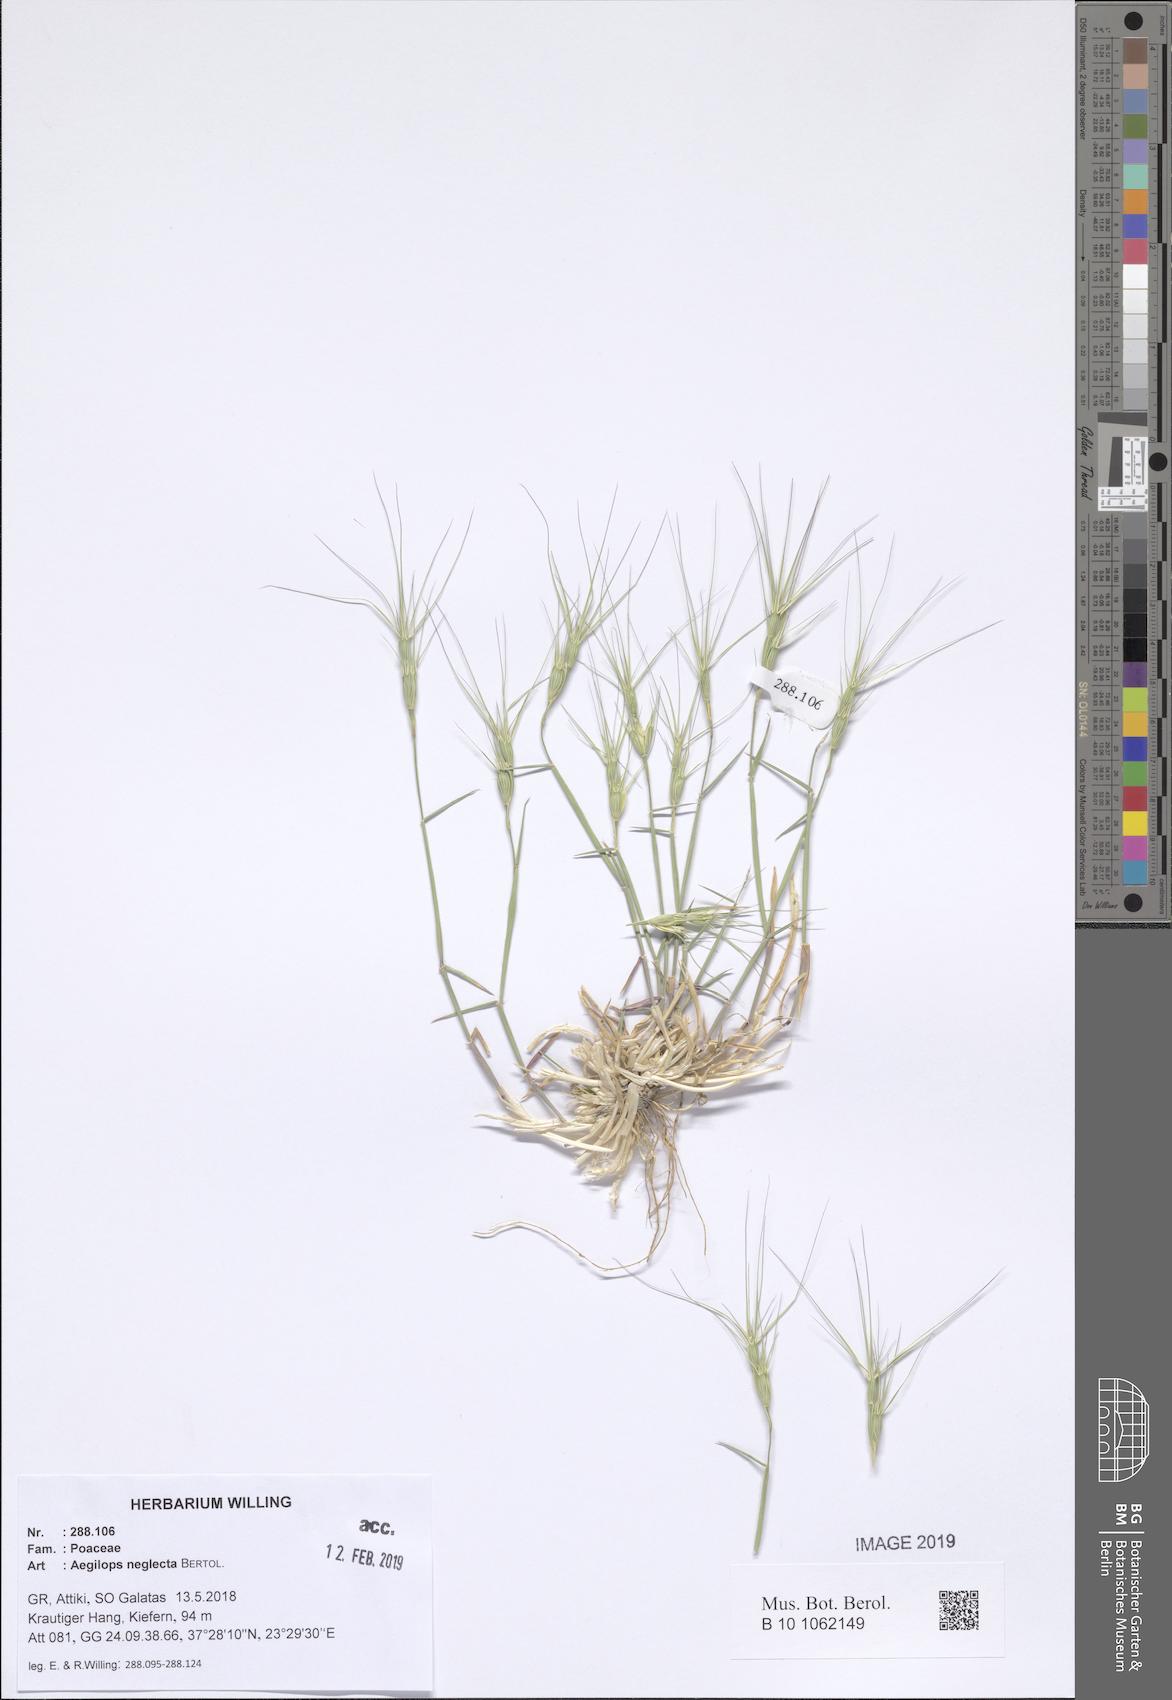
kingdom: Plantae
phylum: Tracheophyta
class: Liliopsida
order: Poales
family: Poaceae
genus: Aegilops
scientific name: Aegilops neglecta
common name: Three-awn goat grass
